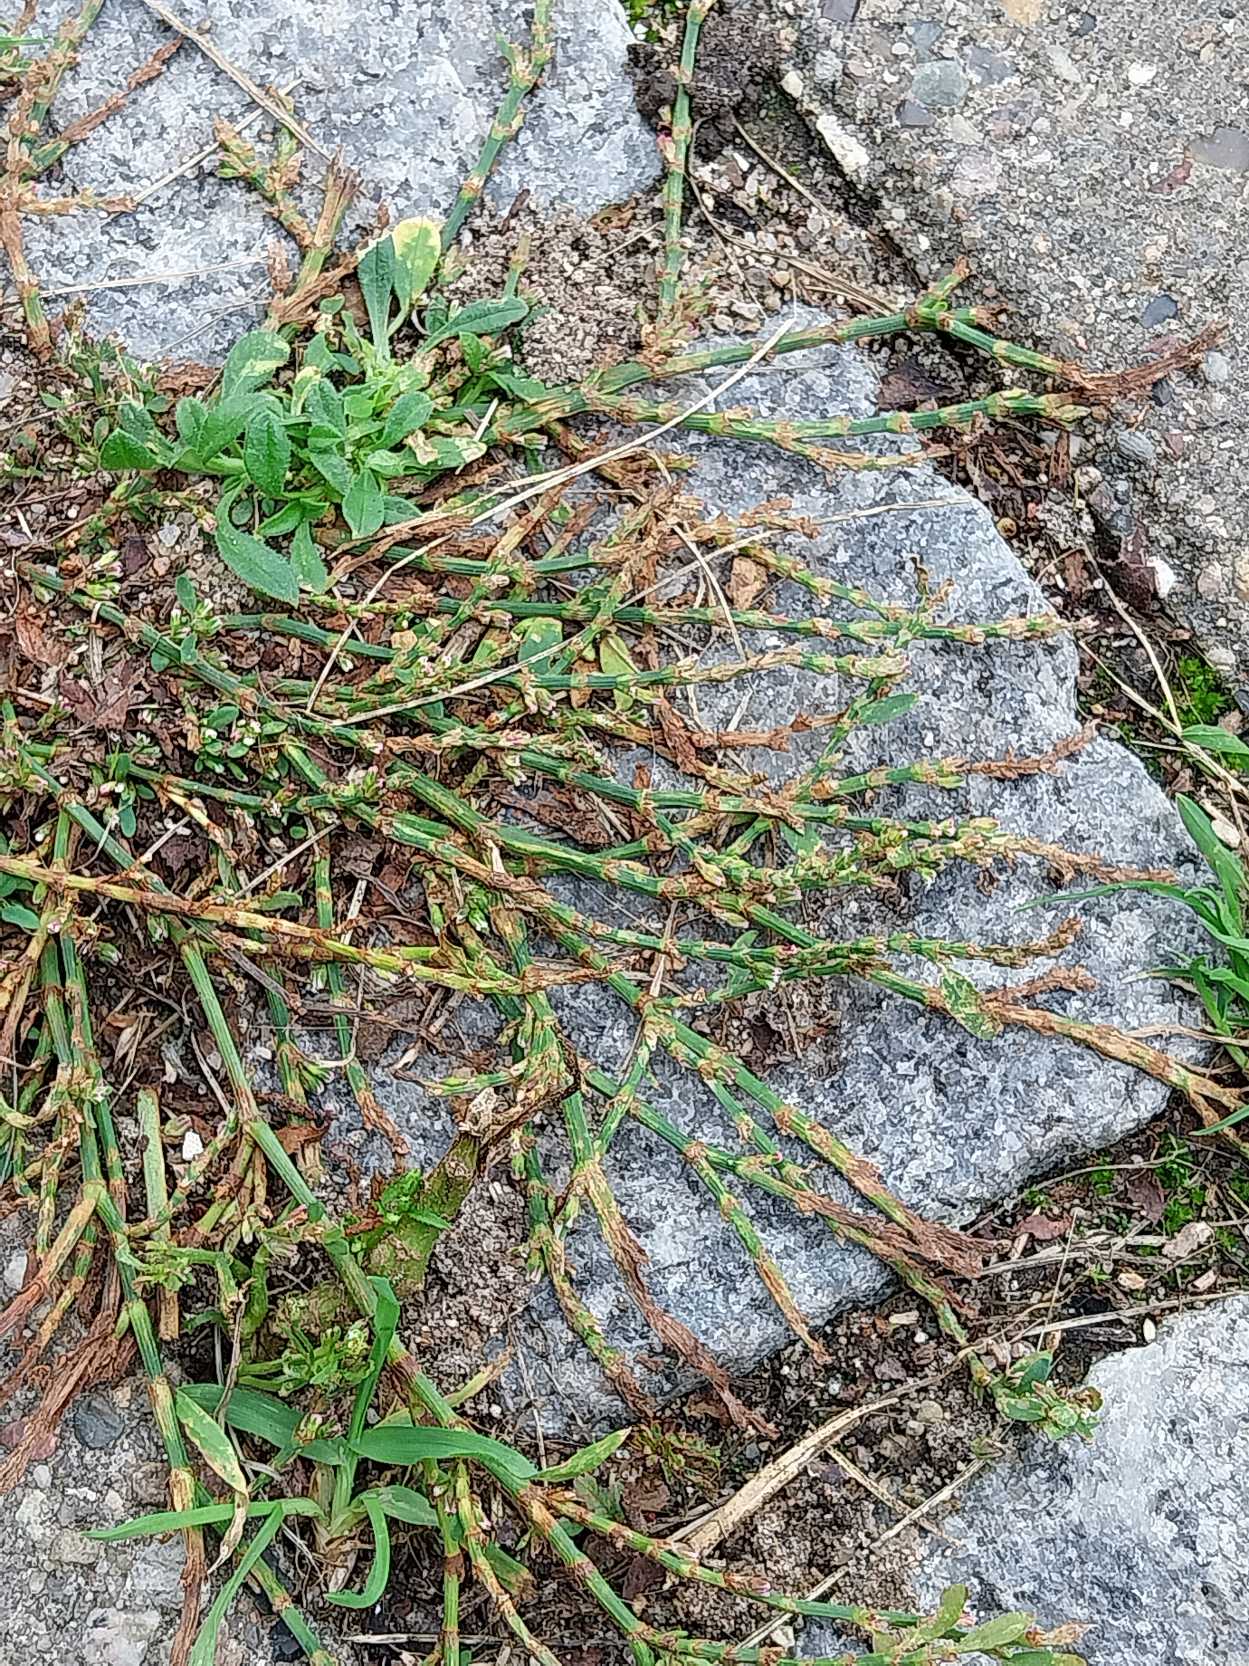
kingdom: Plantae
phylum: Tracheophyta
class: Magnoliopsida
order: Caryophyllales
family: Polygonaceae
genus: Polygonum
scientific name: Polygonum arenastrum
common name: Liggende vej-pileurt
